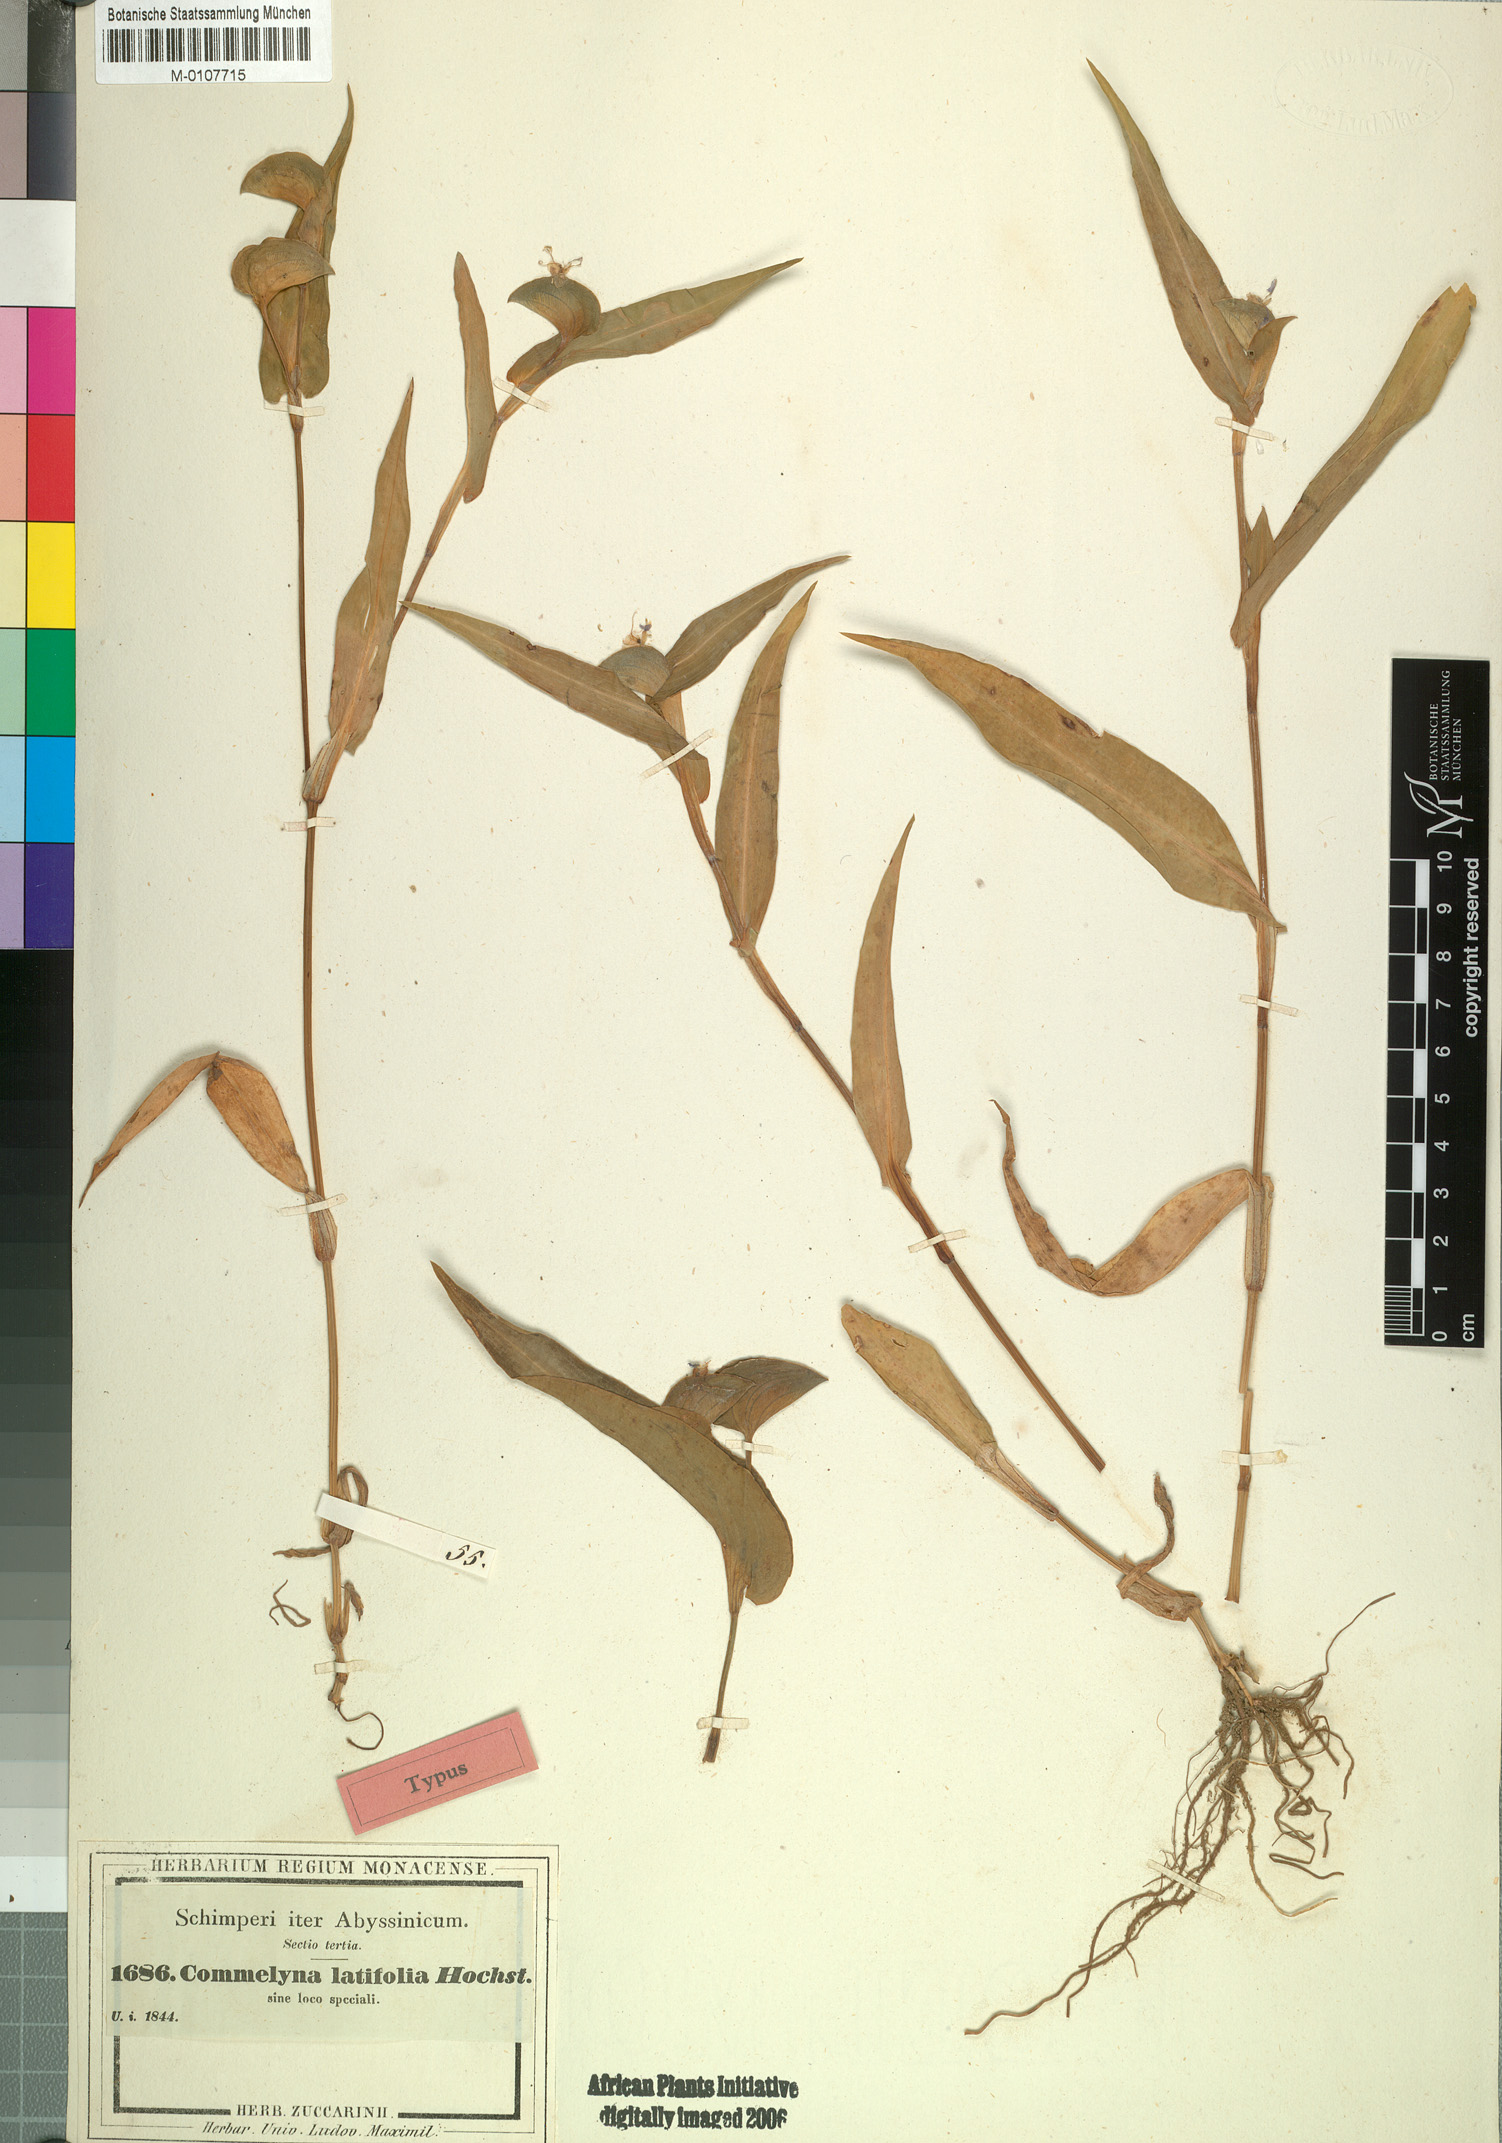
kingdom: Plantae
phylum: Tracheophyta
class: Liliopsida
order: Commelinales
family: Commelinaceae
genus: Commelina
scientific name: Commelina latifolia
